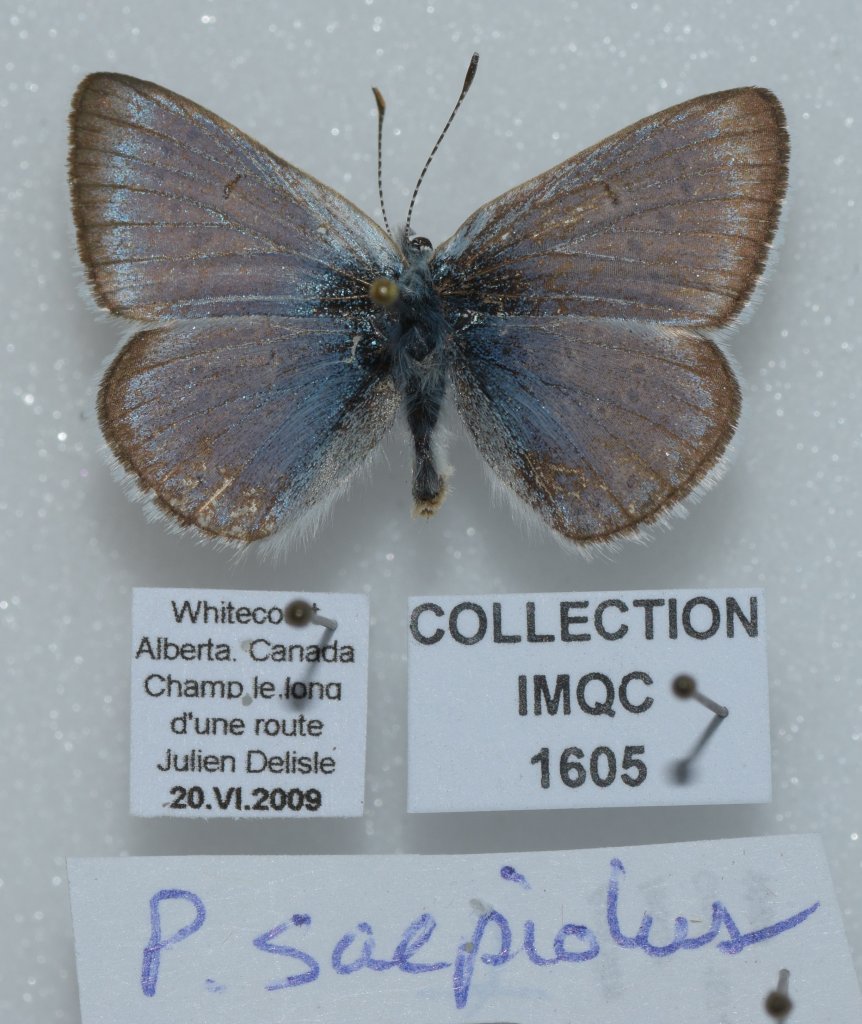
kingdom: Animalia
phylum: Arthropoda
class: Insecta
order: Lepidoptera
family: Lycaenidae
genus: Plebejus
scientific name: Plebejus saepiolus
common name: Greenish Blue
